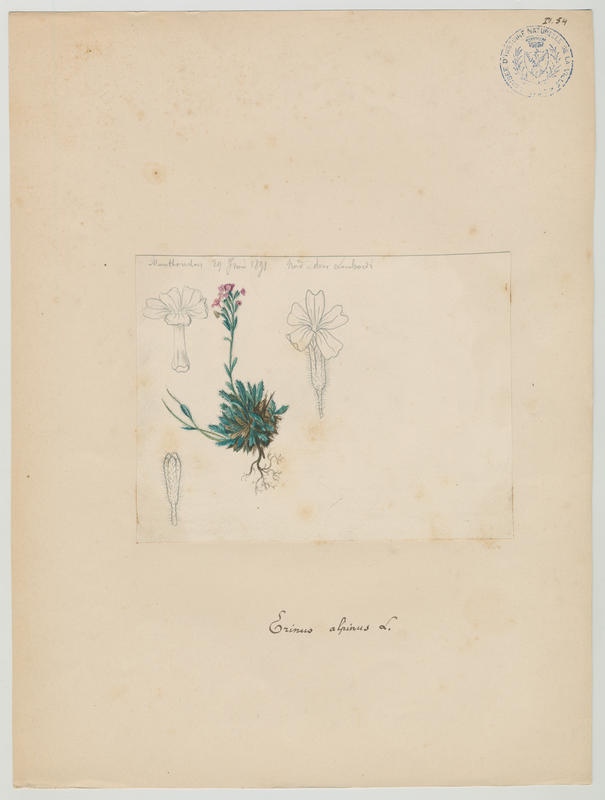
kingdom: Plantae
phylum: Tracheophyta
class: Magnoliopsida
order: Lamiales
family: Plantaginaceae
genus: Erinus
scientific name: Erinus alpinus
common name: Fairy foxglove
